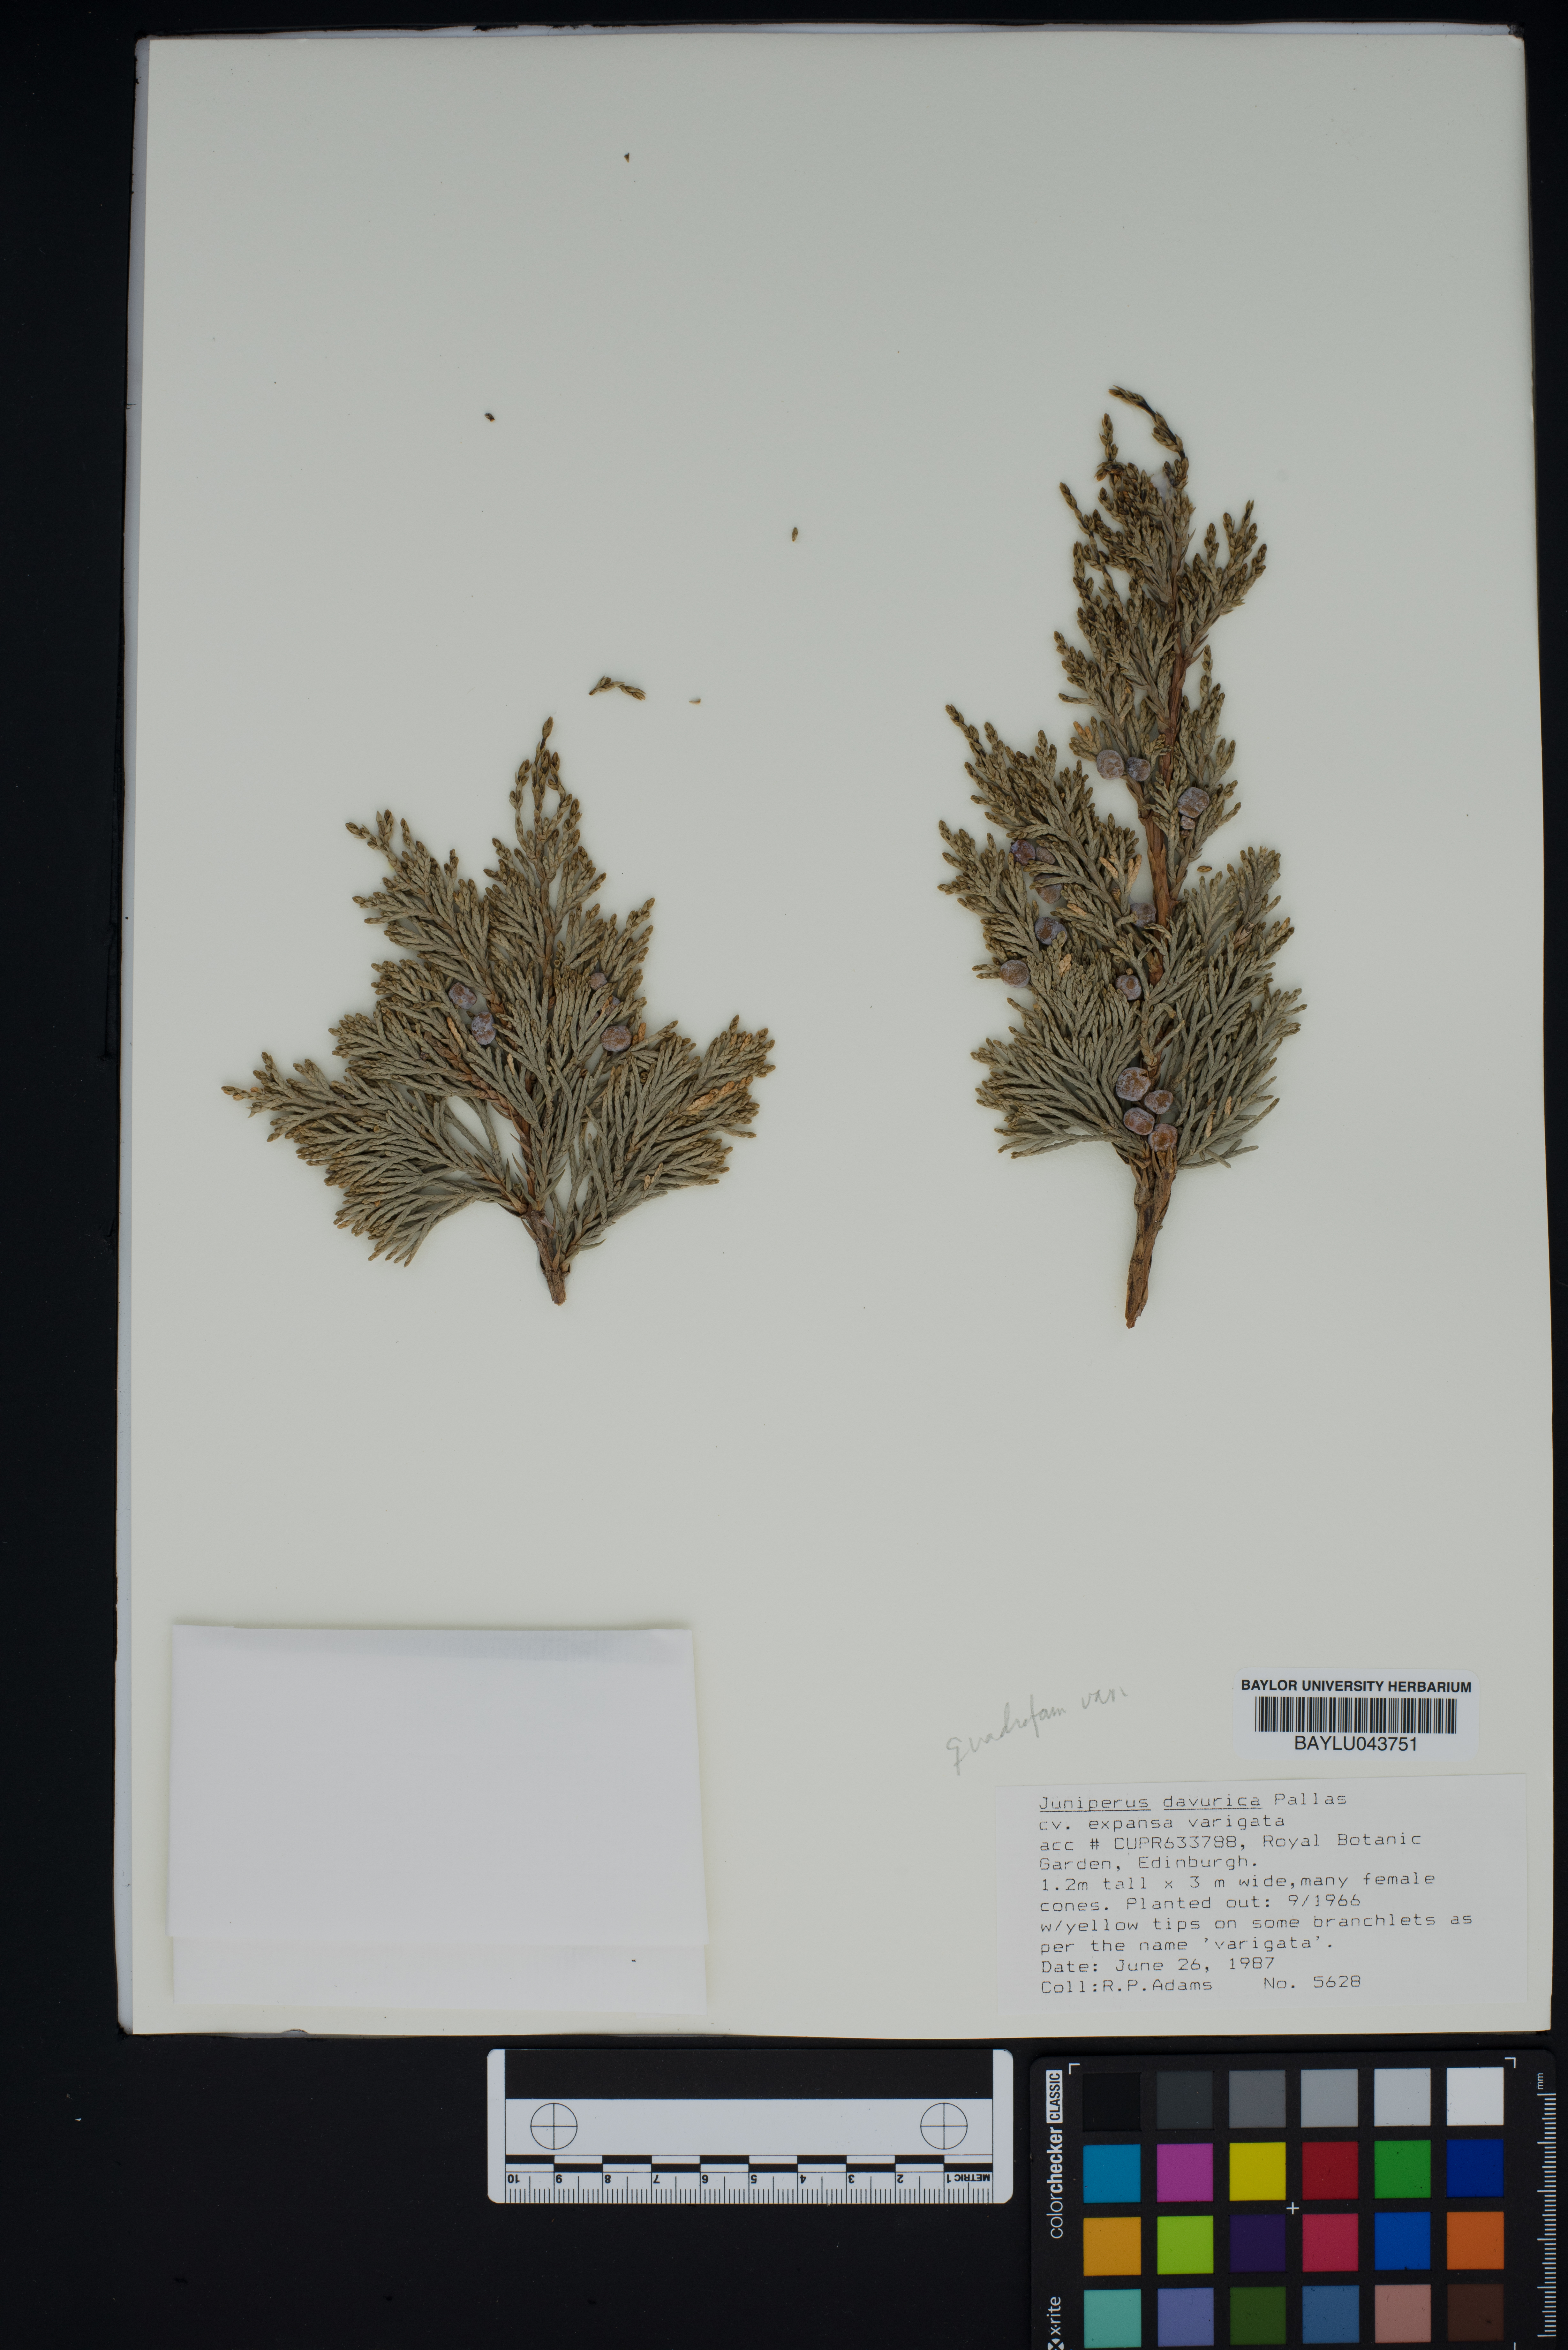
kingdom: Plantae
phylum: Tracheophyta
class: Pinopsida
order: Pinales
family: Cupressaceae
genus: Juniperus
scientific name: Juniperus sabina
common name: Savin
